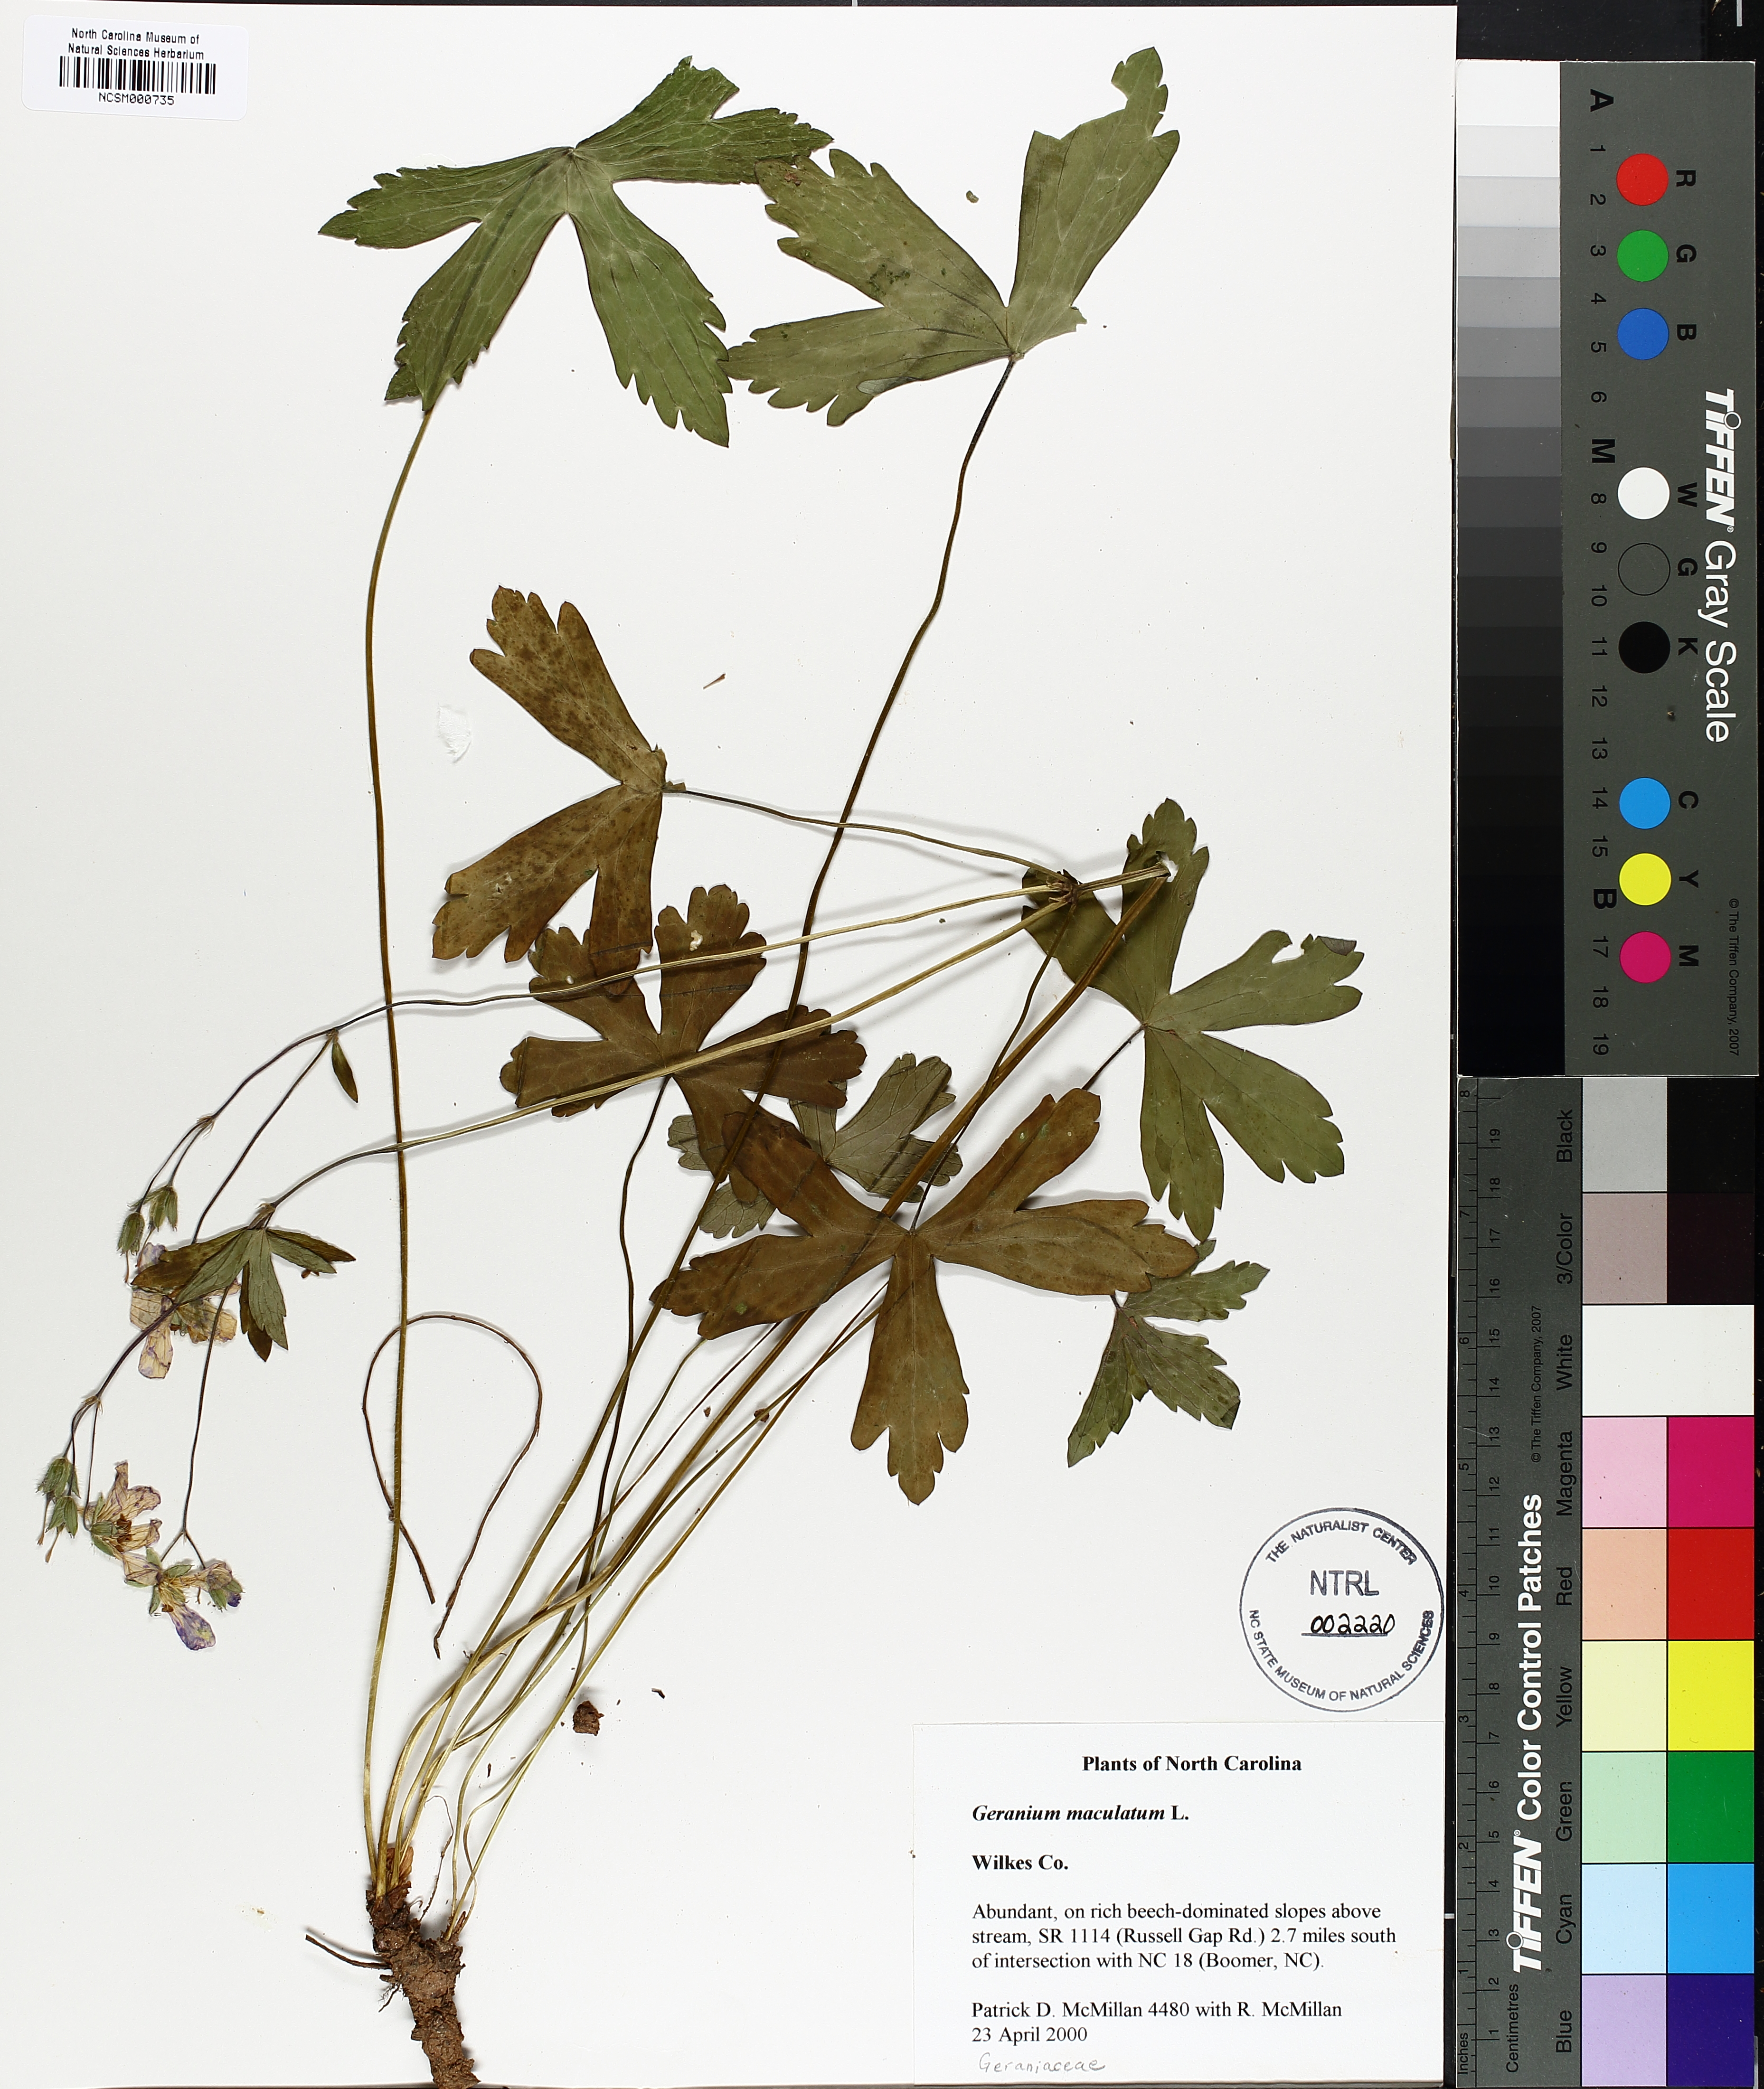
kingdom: Plantae
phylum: Tracheophyta
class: Magnoliopsida
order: Geraniales
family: Geraniaceae
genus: Geranium
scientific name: Geranium maculatum
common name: Spotted geranium
